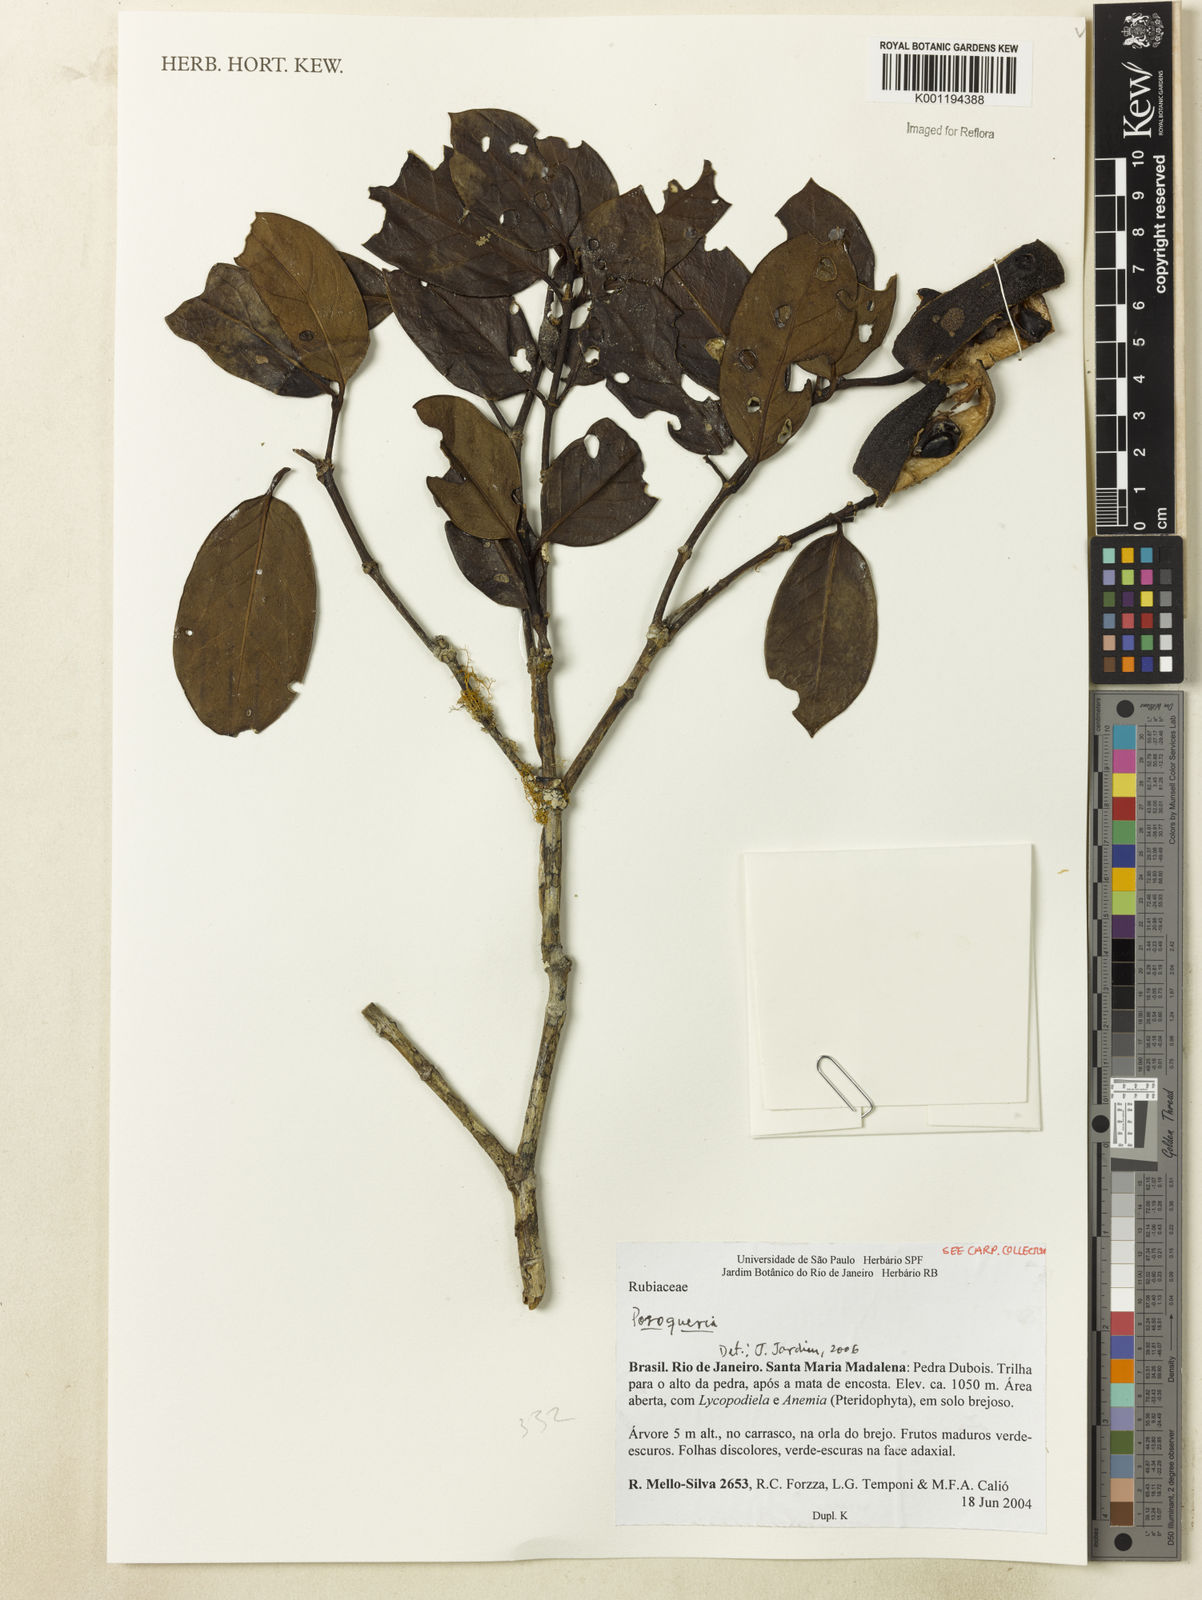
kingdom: Plantae
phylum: Tracheophyta
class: Magnoliopsida
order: Gentianales
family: Rubiaceae
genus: Posoqueria
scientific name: Posoqueria
